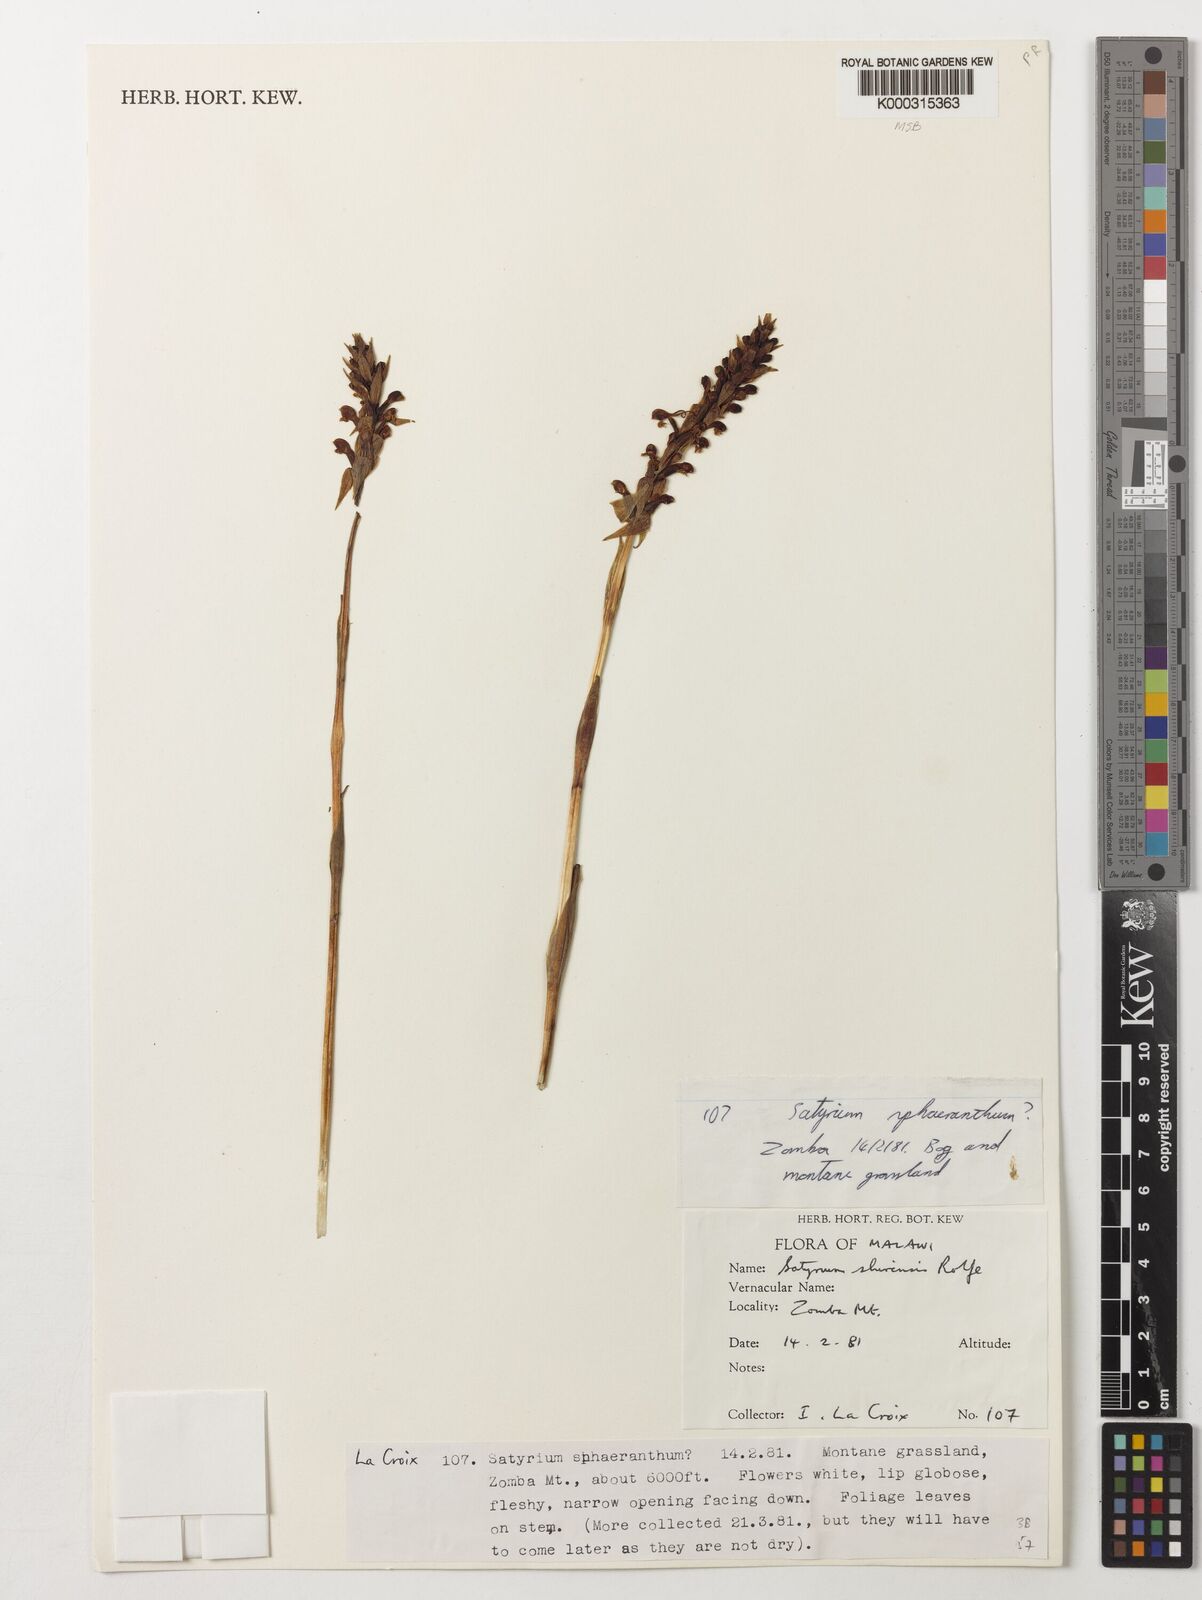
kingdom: Plantae
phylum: Tracheophyta
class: Liliopsida
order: Asparagales
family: Orchidaceae
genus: Satyrium
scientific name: Satyrium shirense
